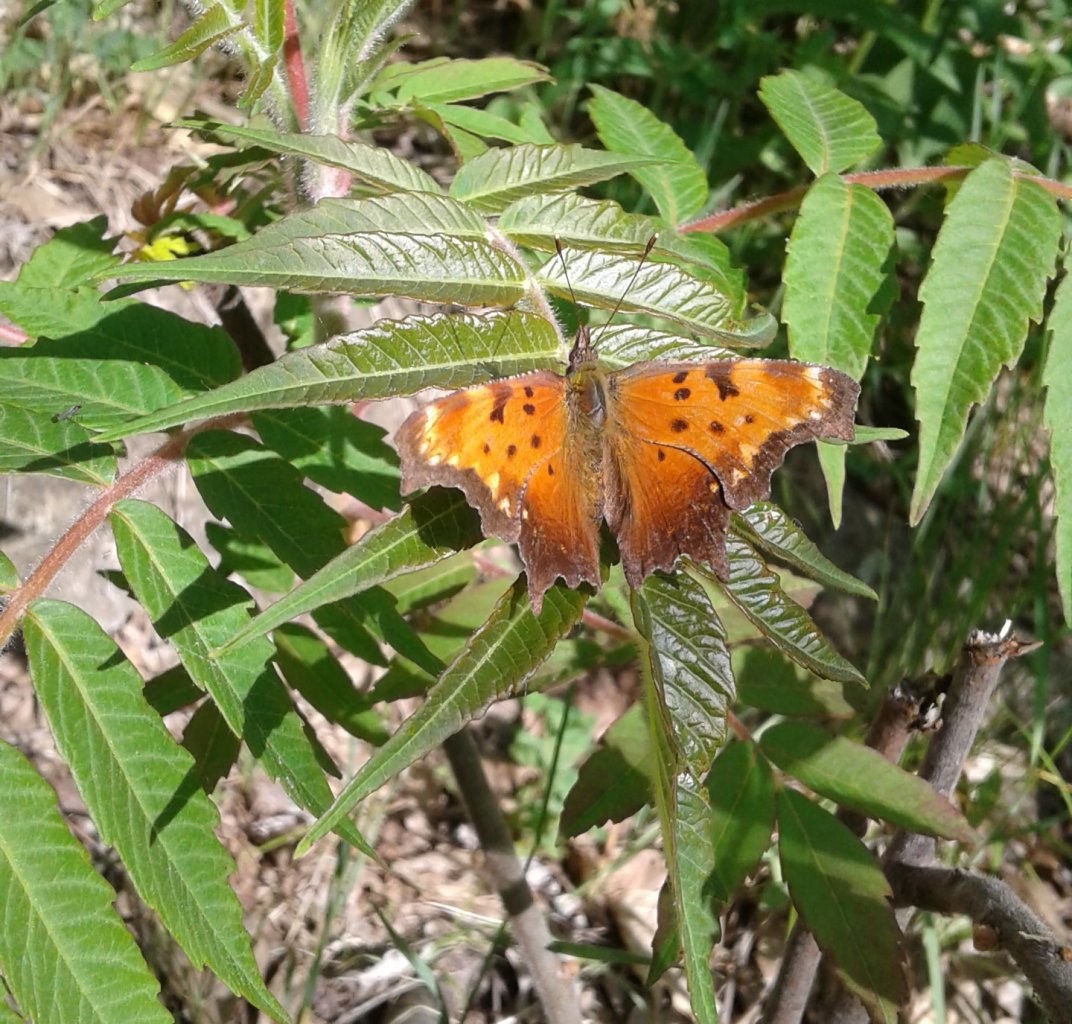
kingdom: Animalia
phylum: Arthropoda
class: Insecta
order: Lepidoptera
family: Nymphalidae
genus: Polygonia
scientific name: Polygonia progne
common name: Gray Comma
